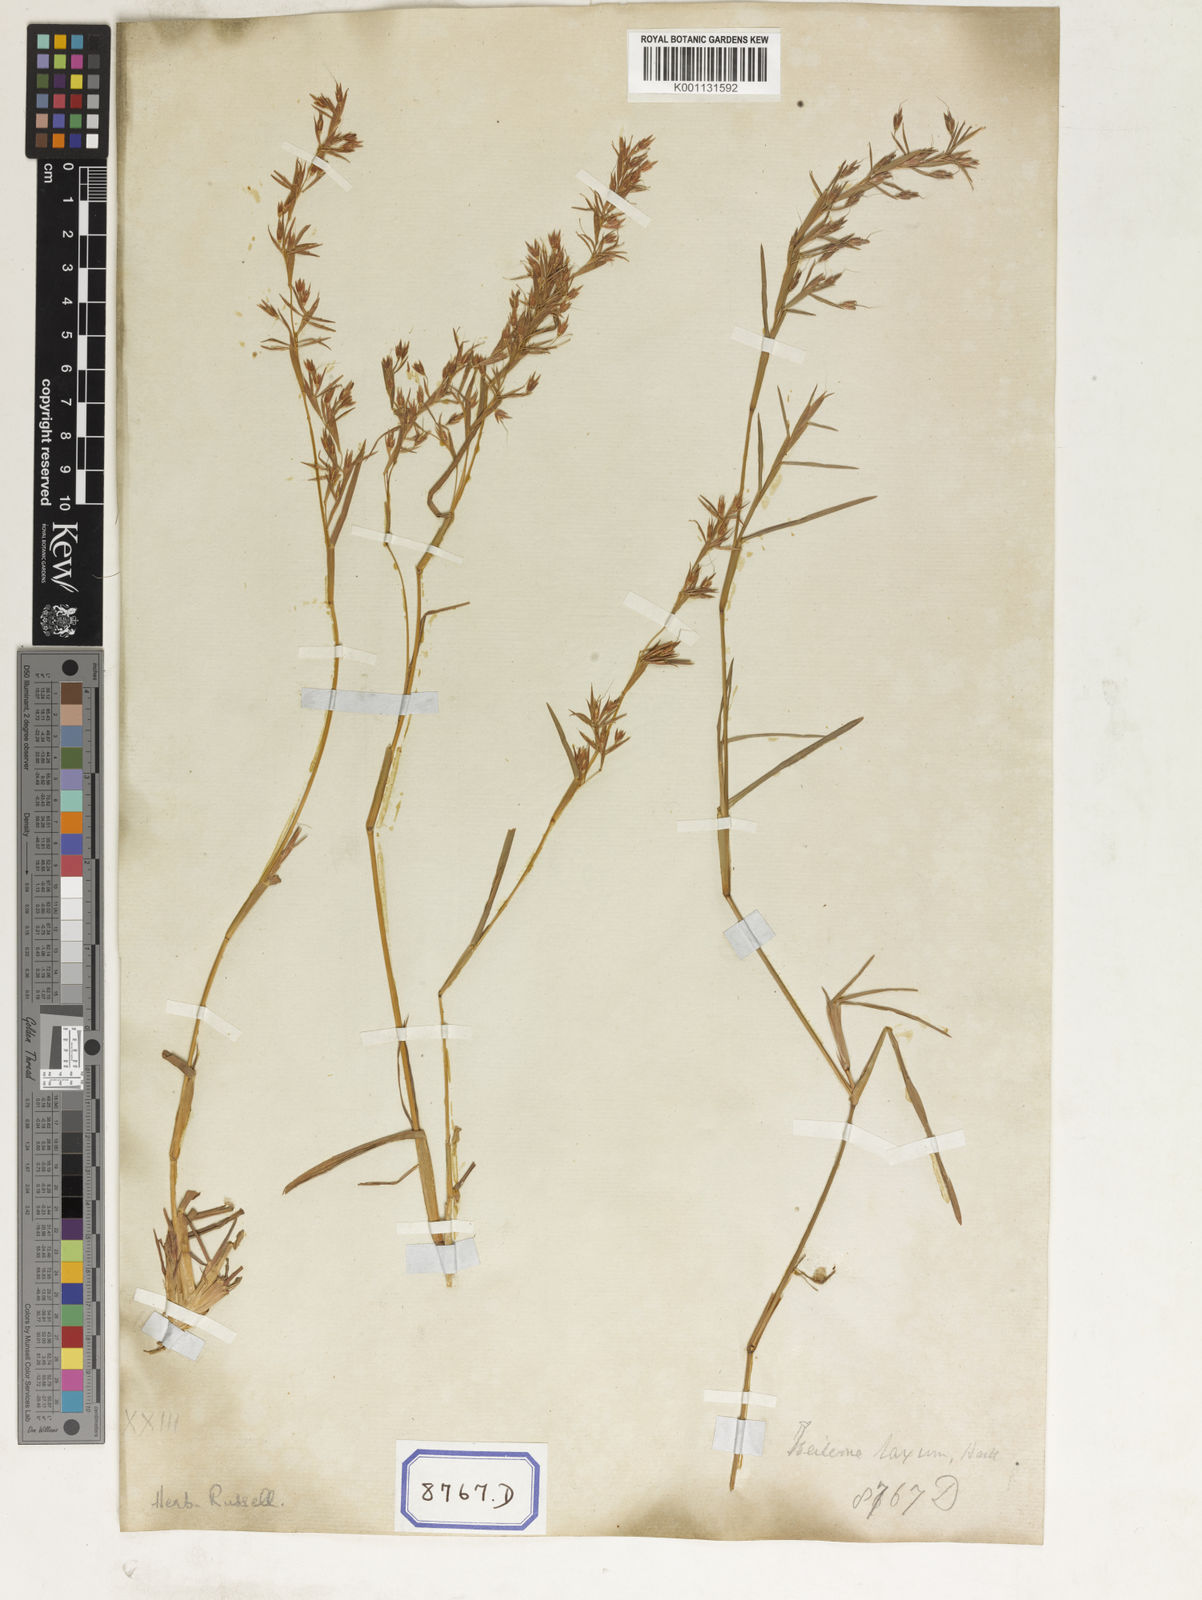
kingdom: Plantae
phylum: Tracheophyta
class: Liliopsida
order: Poales
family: Poaceae
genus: Themeda
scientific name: Themeda
